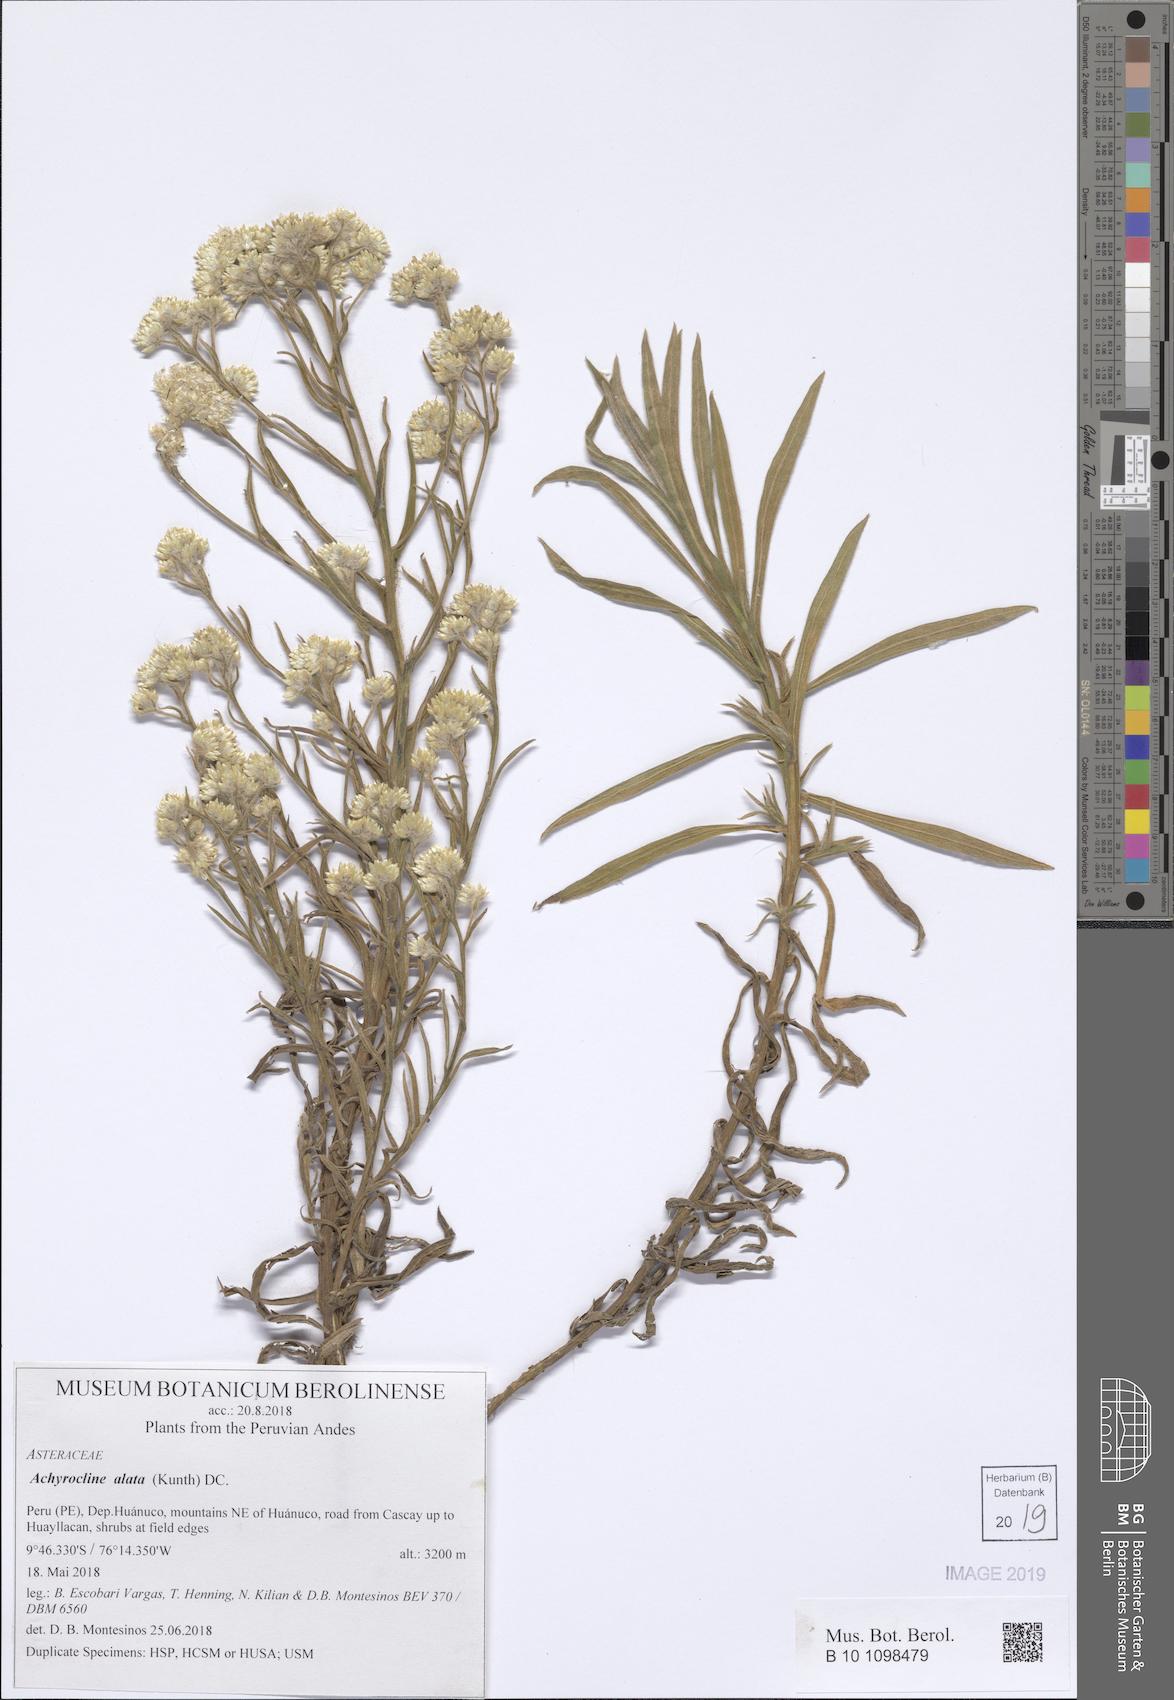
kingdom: Plantae
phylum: Tracheophyta
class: Magnoliopsida
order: Asterales
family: Asteraceae
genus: Achyrocline
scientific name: Achyrocline alata
